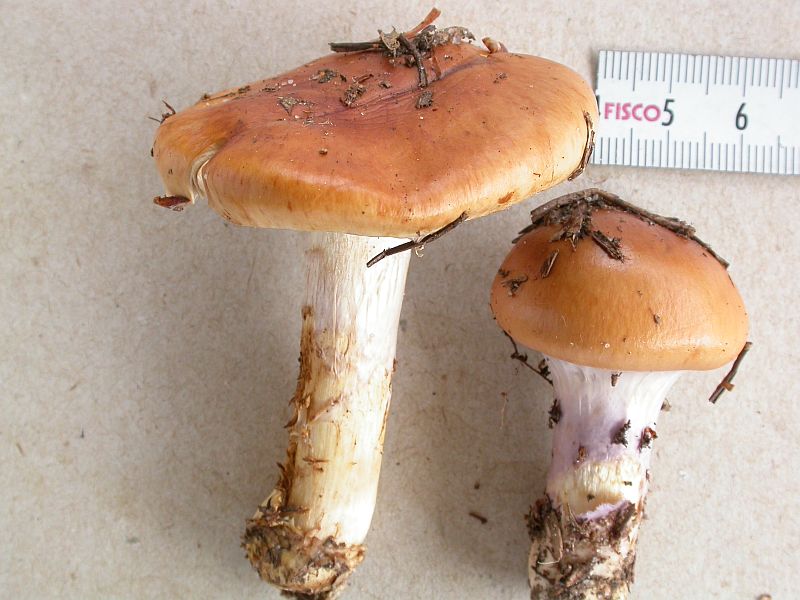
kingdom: Fungi
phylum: Basidiomycota
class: Agaricomycetes
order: Agaricales
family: Cortinariaceae
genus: Cortinarius
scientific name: Cortinarius mucosus
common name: kastaniebrun slørhat
